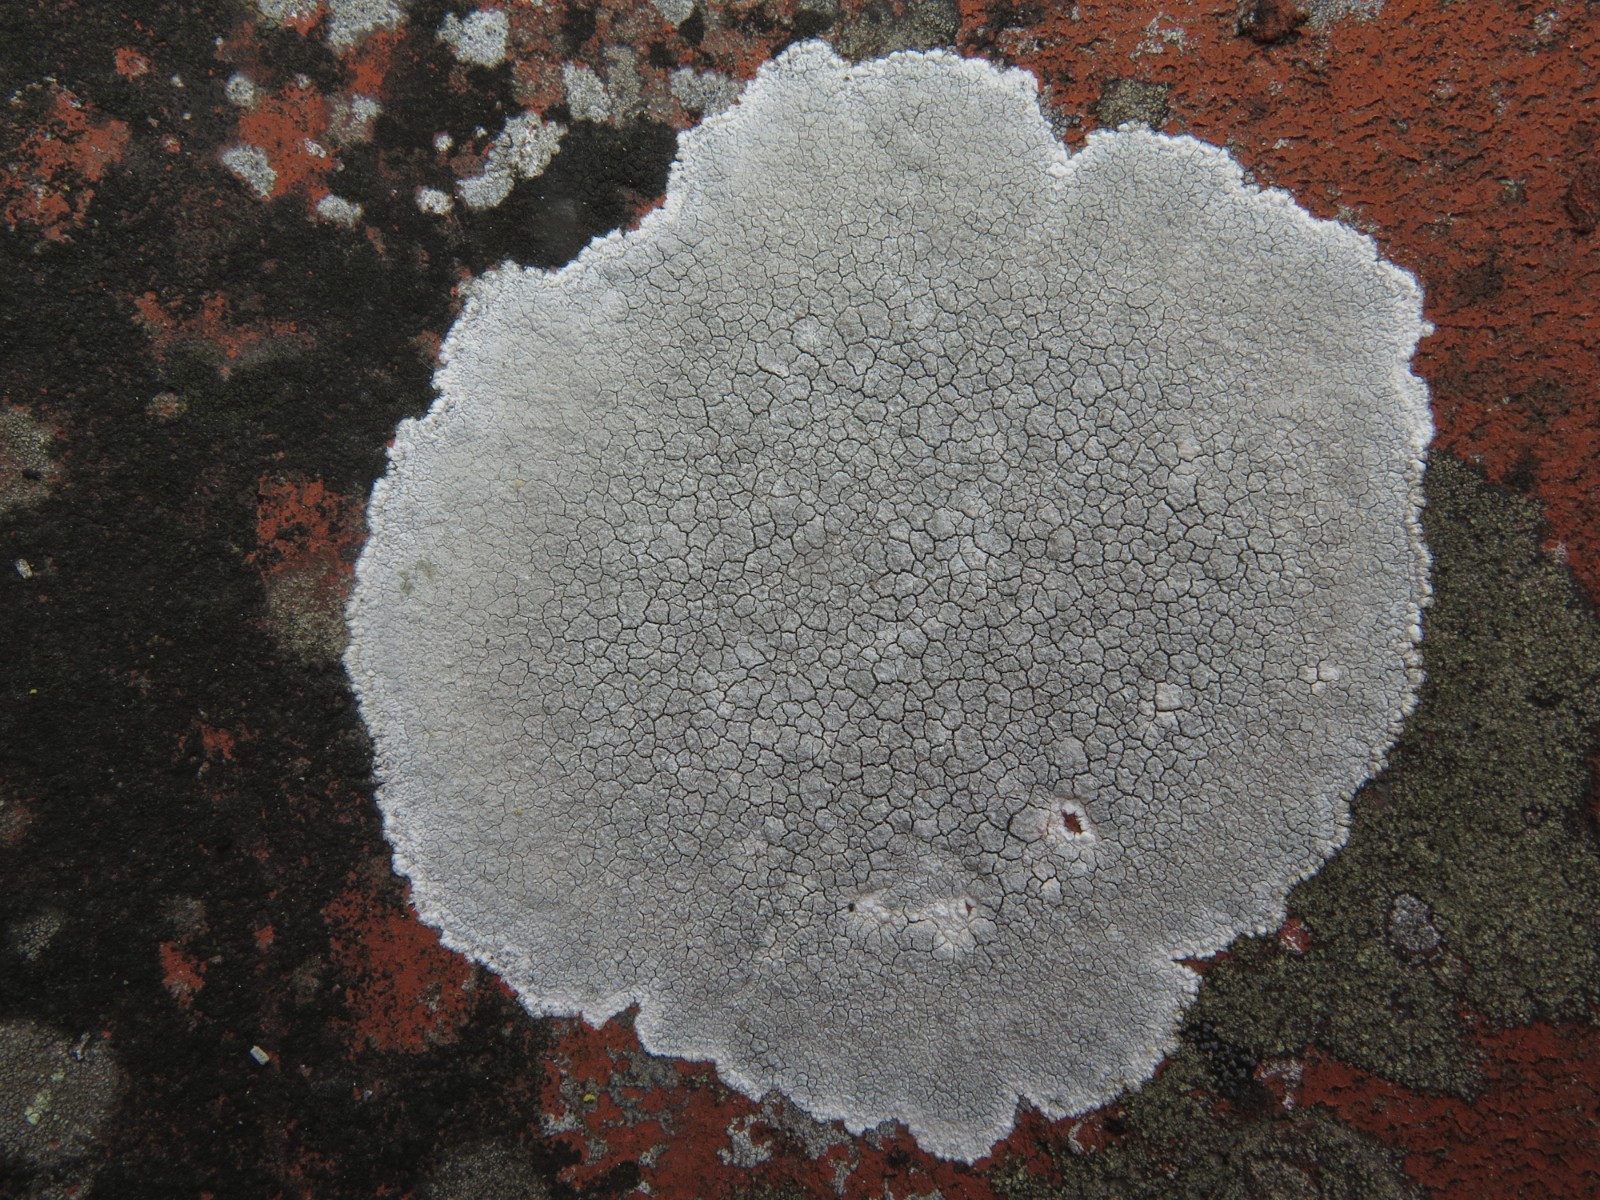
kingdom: Fungi
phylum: Ascomycota
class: Lecanoromycetes
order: Lecanorales
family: Lecanoraceae
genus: Glaucomaria
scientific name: Glaucomaria rupicola
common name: stengærde-kantskivelav
